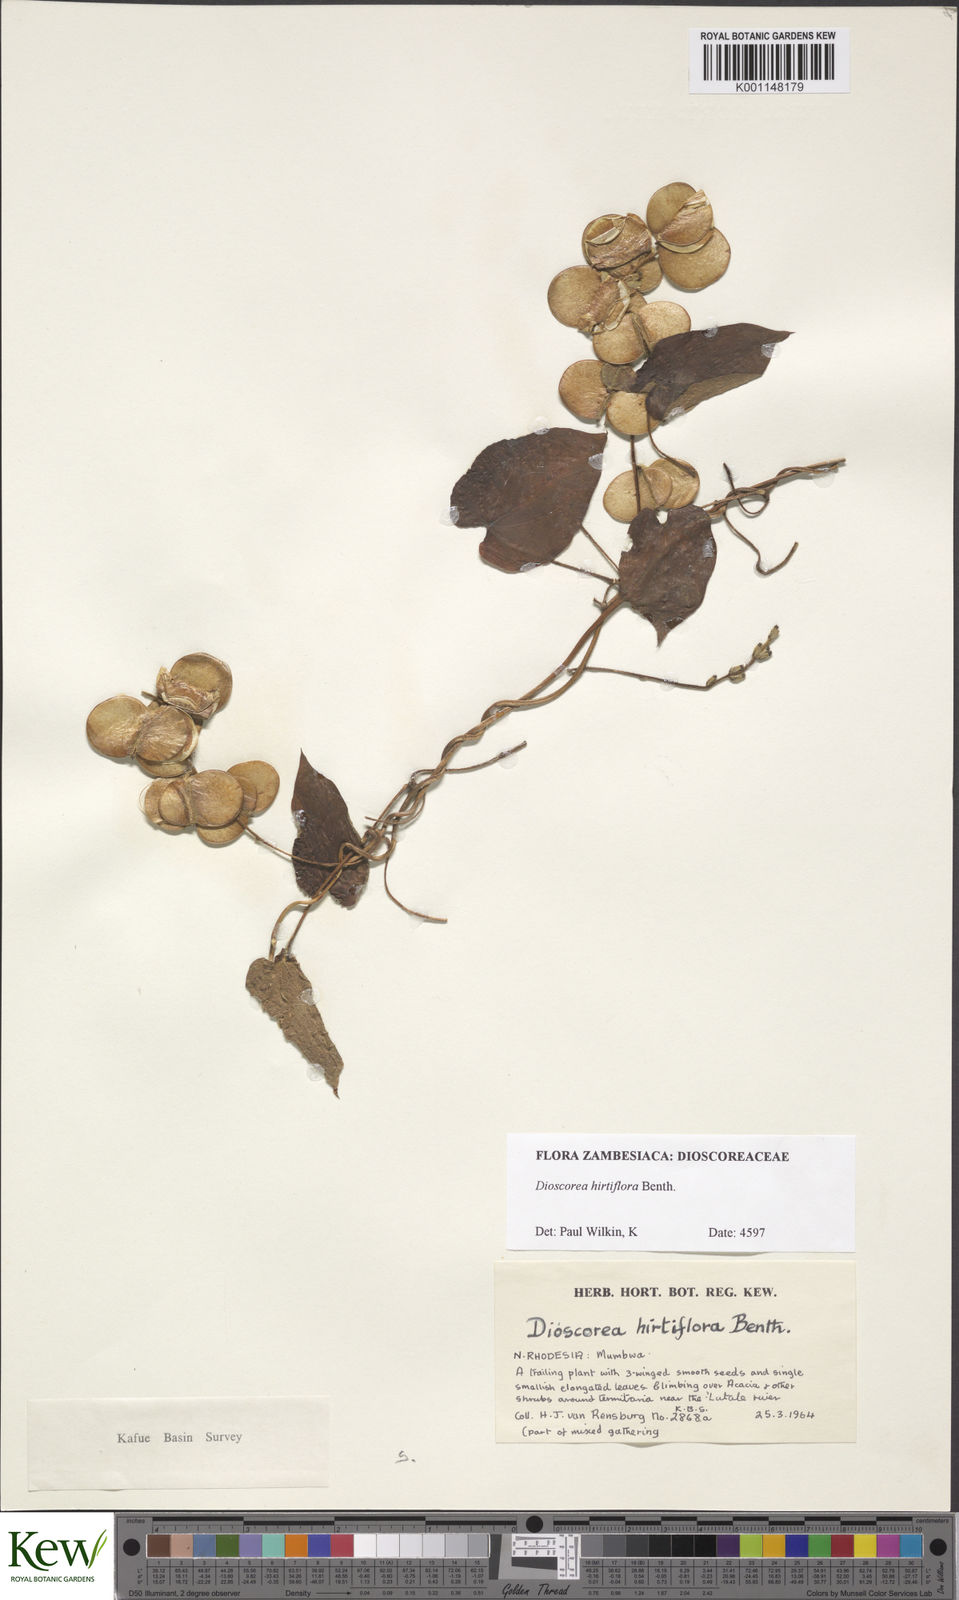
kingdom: Plantae
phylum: Tracheophyta
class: Liliopsida
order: Dioscoreales
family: Dioscoreaceae
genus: Dioscorea
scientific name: Dioscorea hirtiflora
